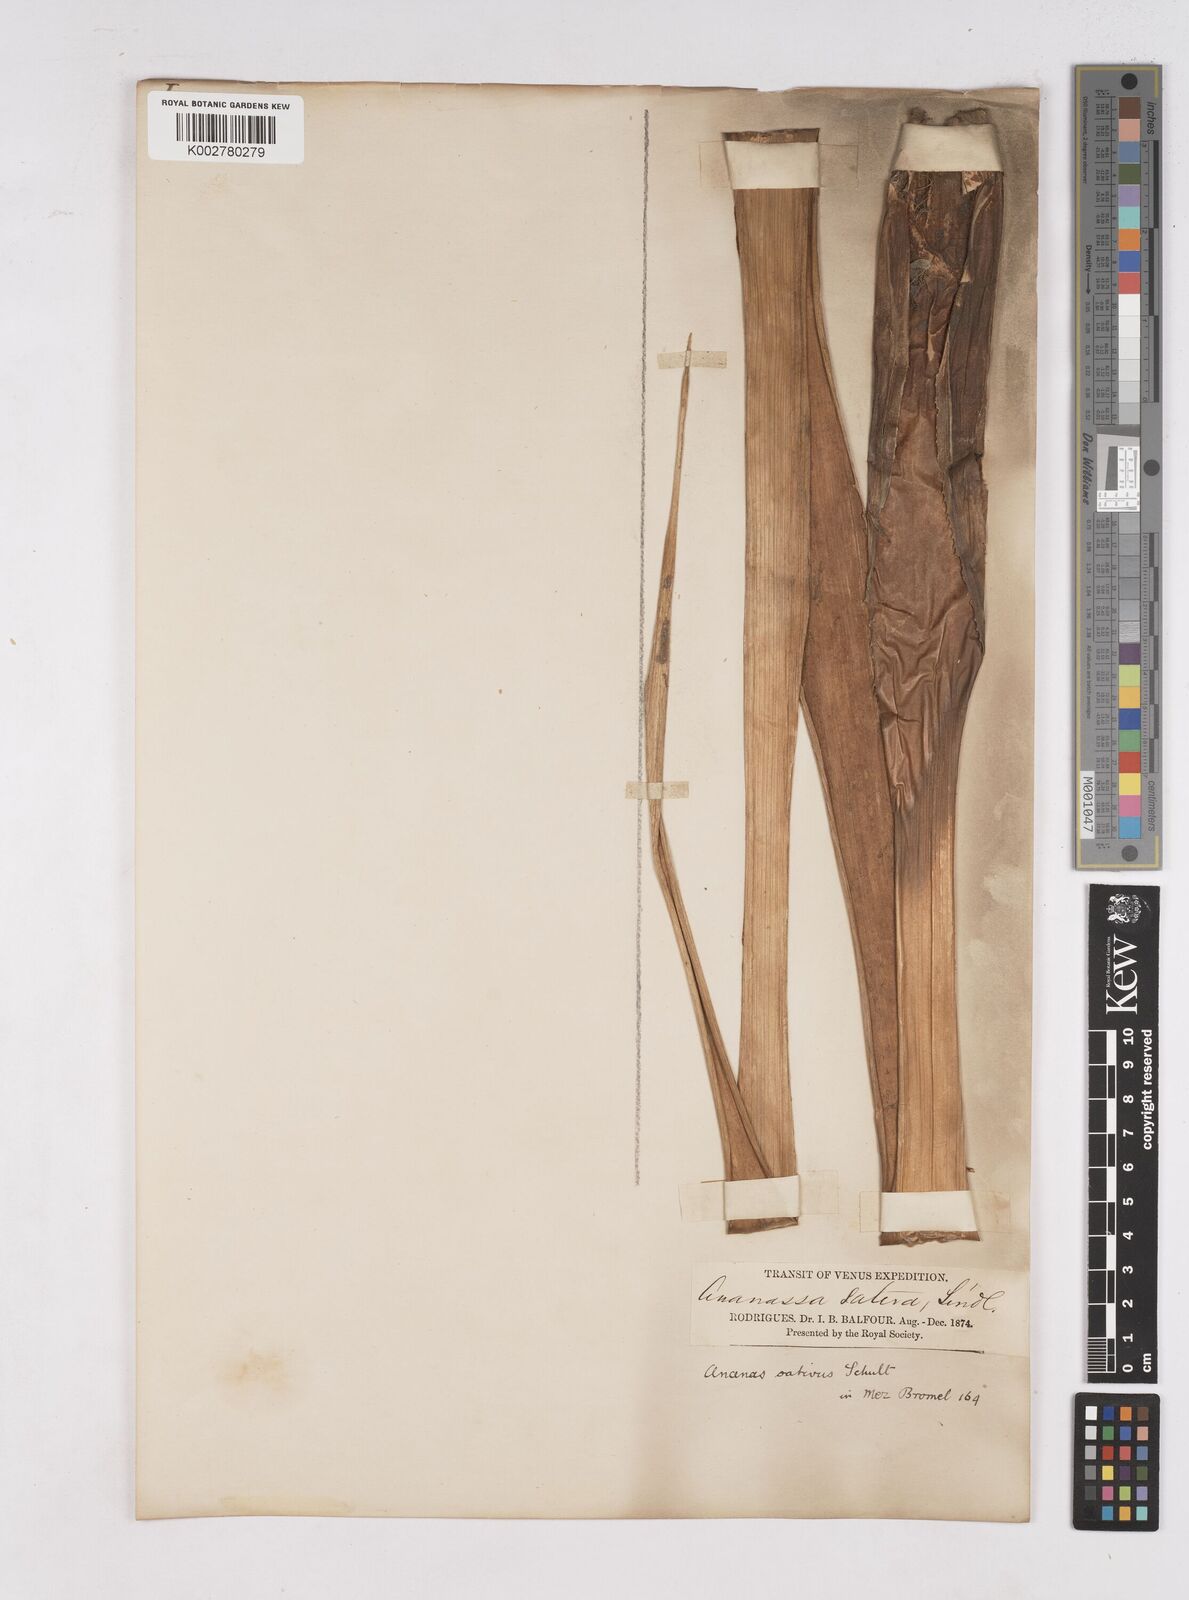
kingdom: Plantae
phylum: Tracheophyta
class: Liliopsida
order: Poales
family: Bromeliaceae
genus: Ananas
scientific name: Ananas comosus
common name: Pineapple
